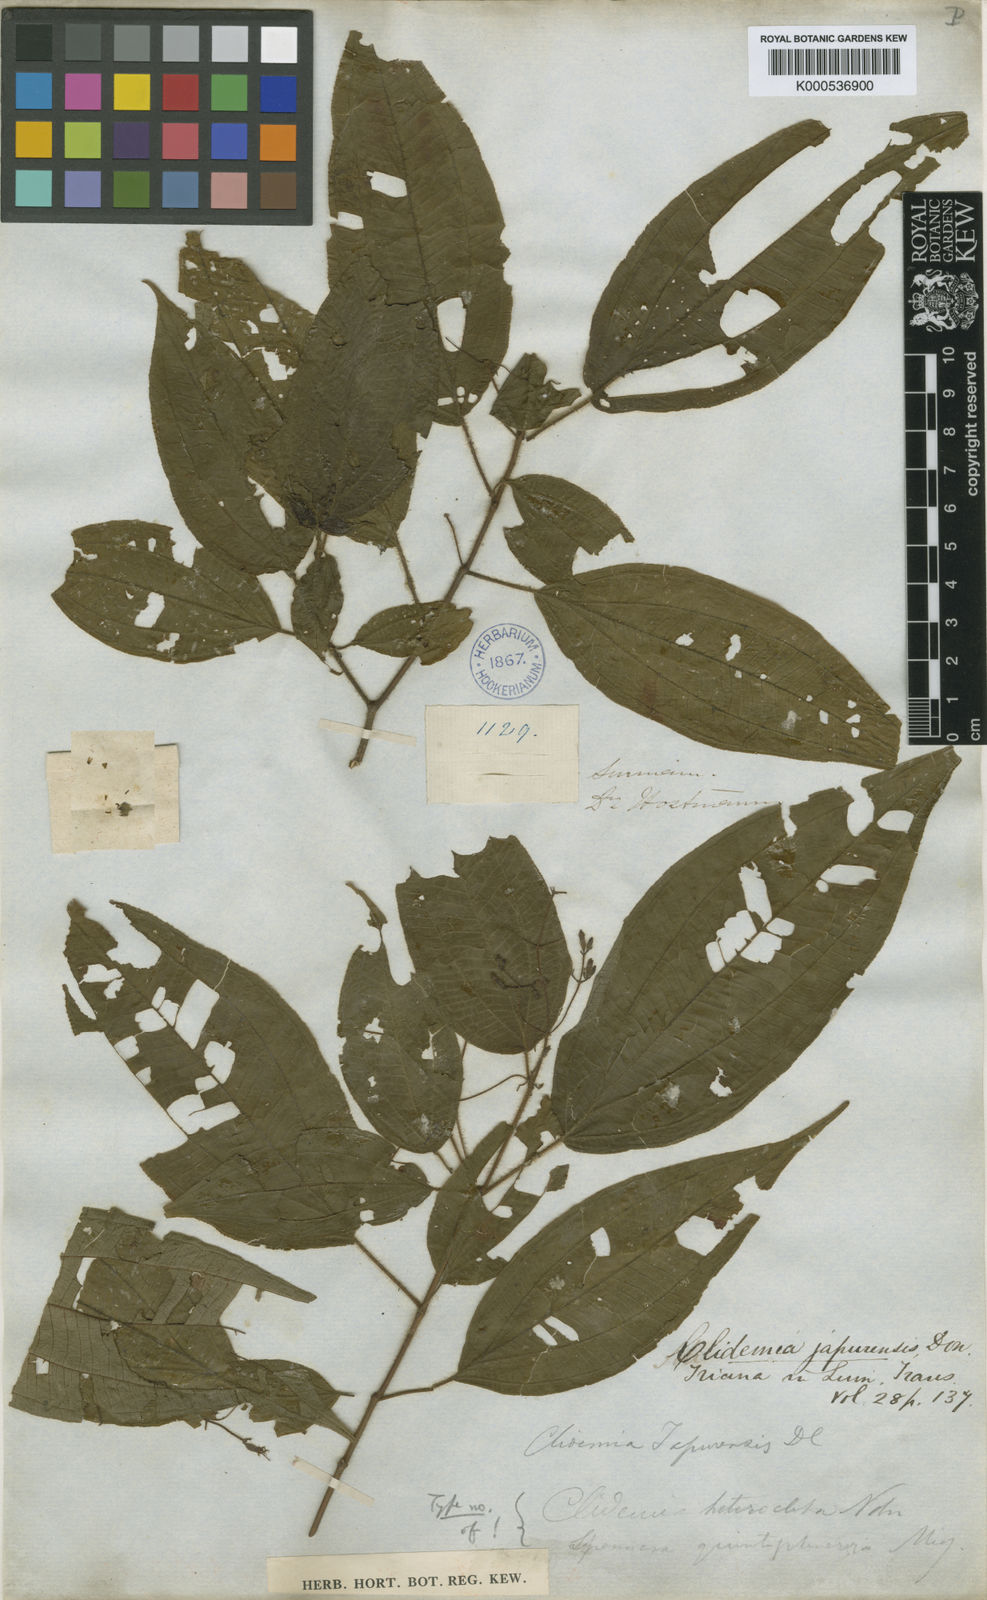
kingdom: Plantae
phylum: Tracheophyta
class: Magnoliopsida
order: Myrtales
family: Melastomataceae
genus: Miconia
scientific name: Miconia heteroclita
